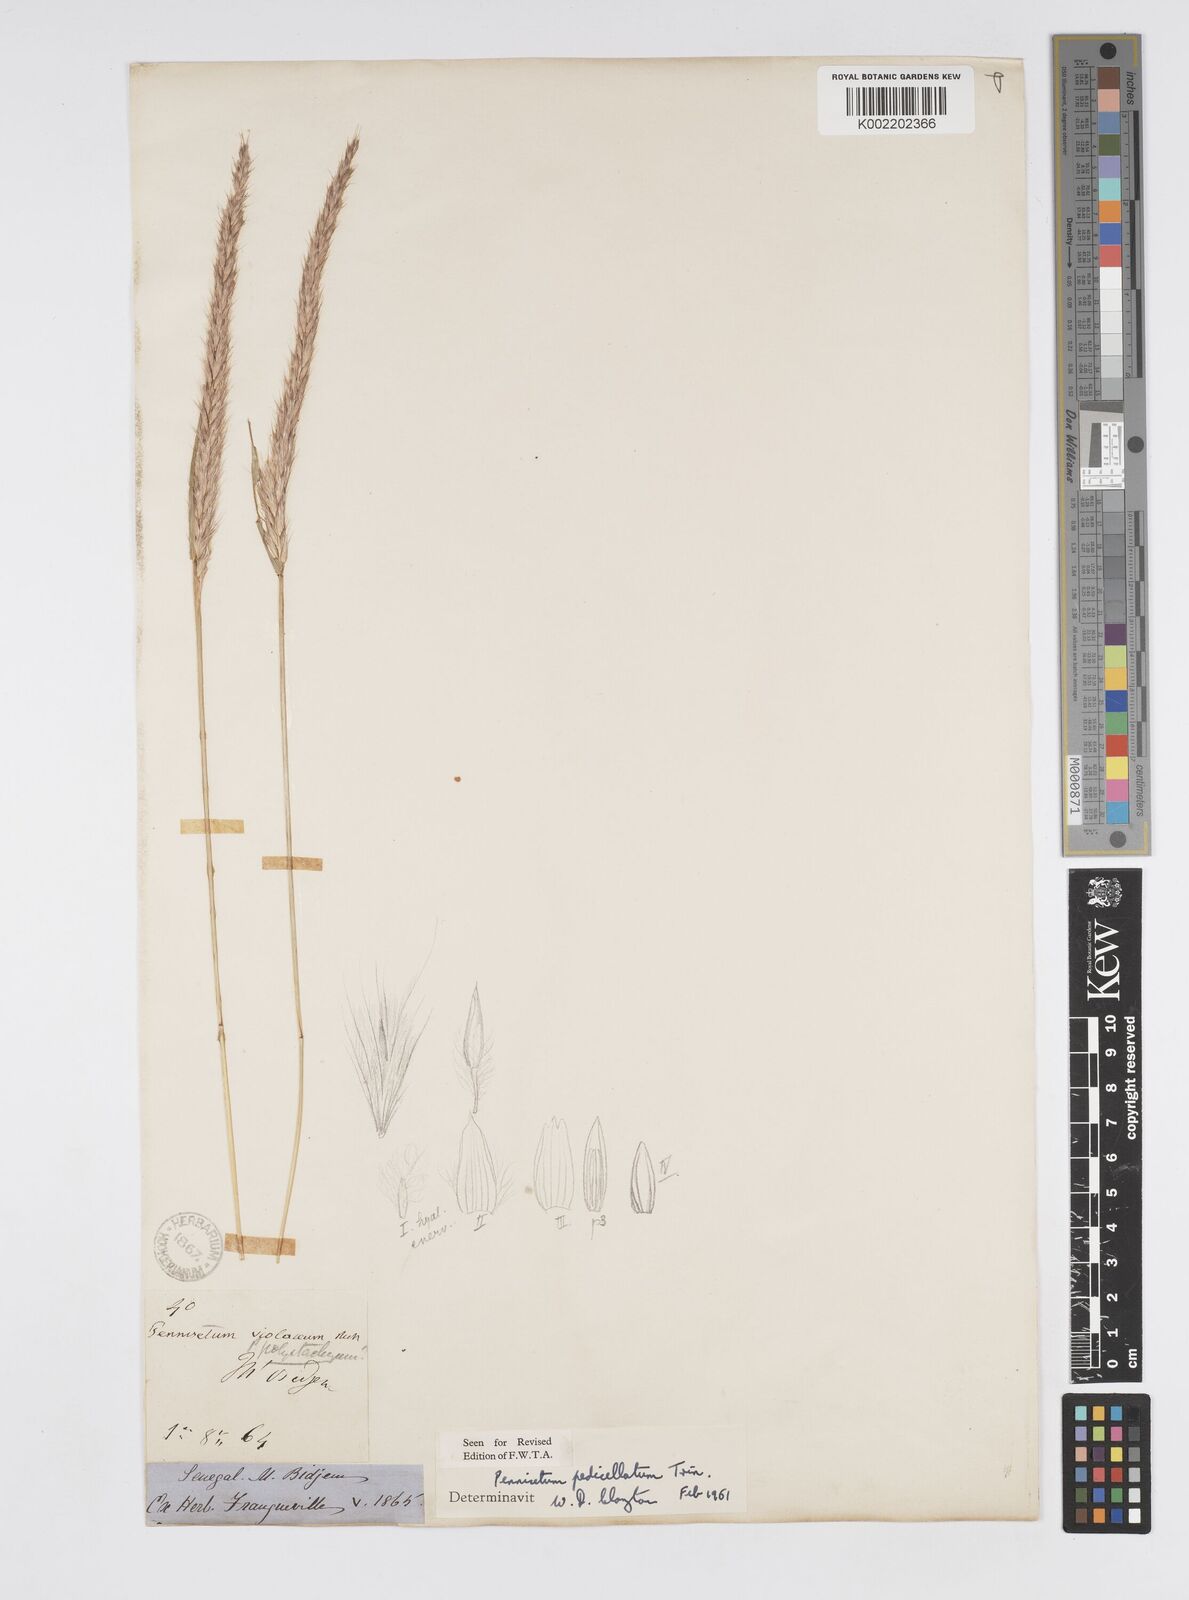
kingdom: Plantae
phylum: Tracheophyta
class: Liliopsida
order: Poales
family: Poaceae
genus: Cenchrus
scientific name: Cenchrus pedicellatus
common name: Hairy fountain grass
